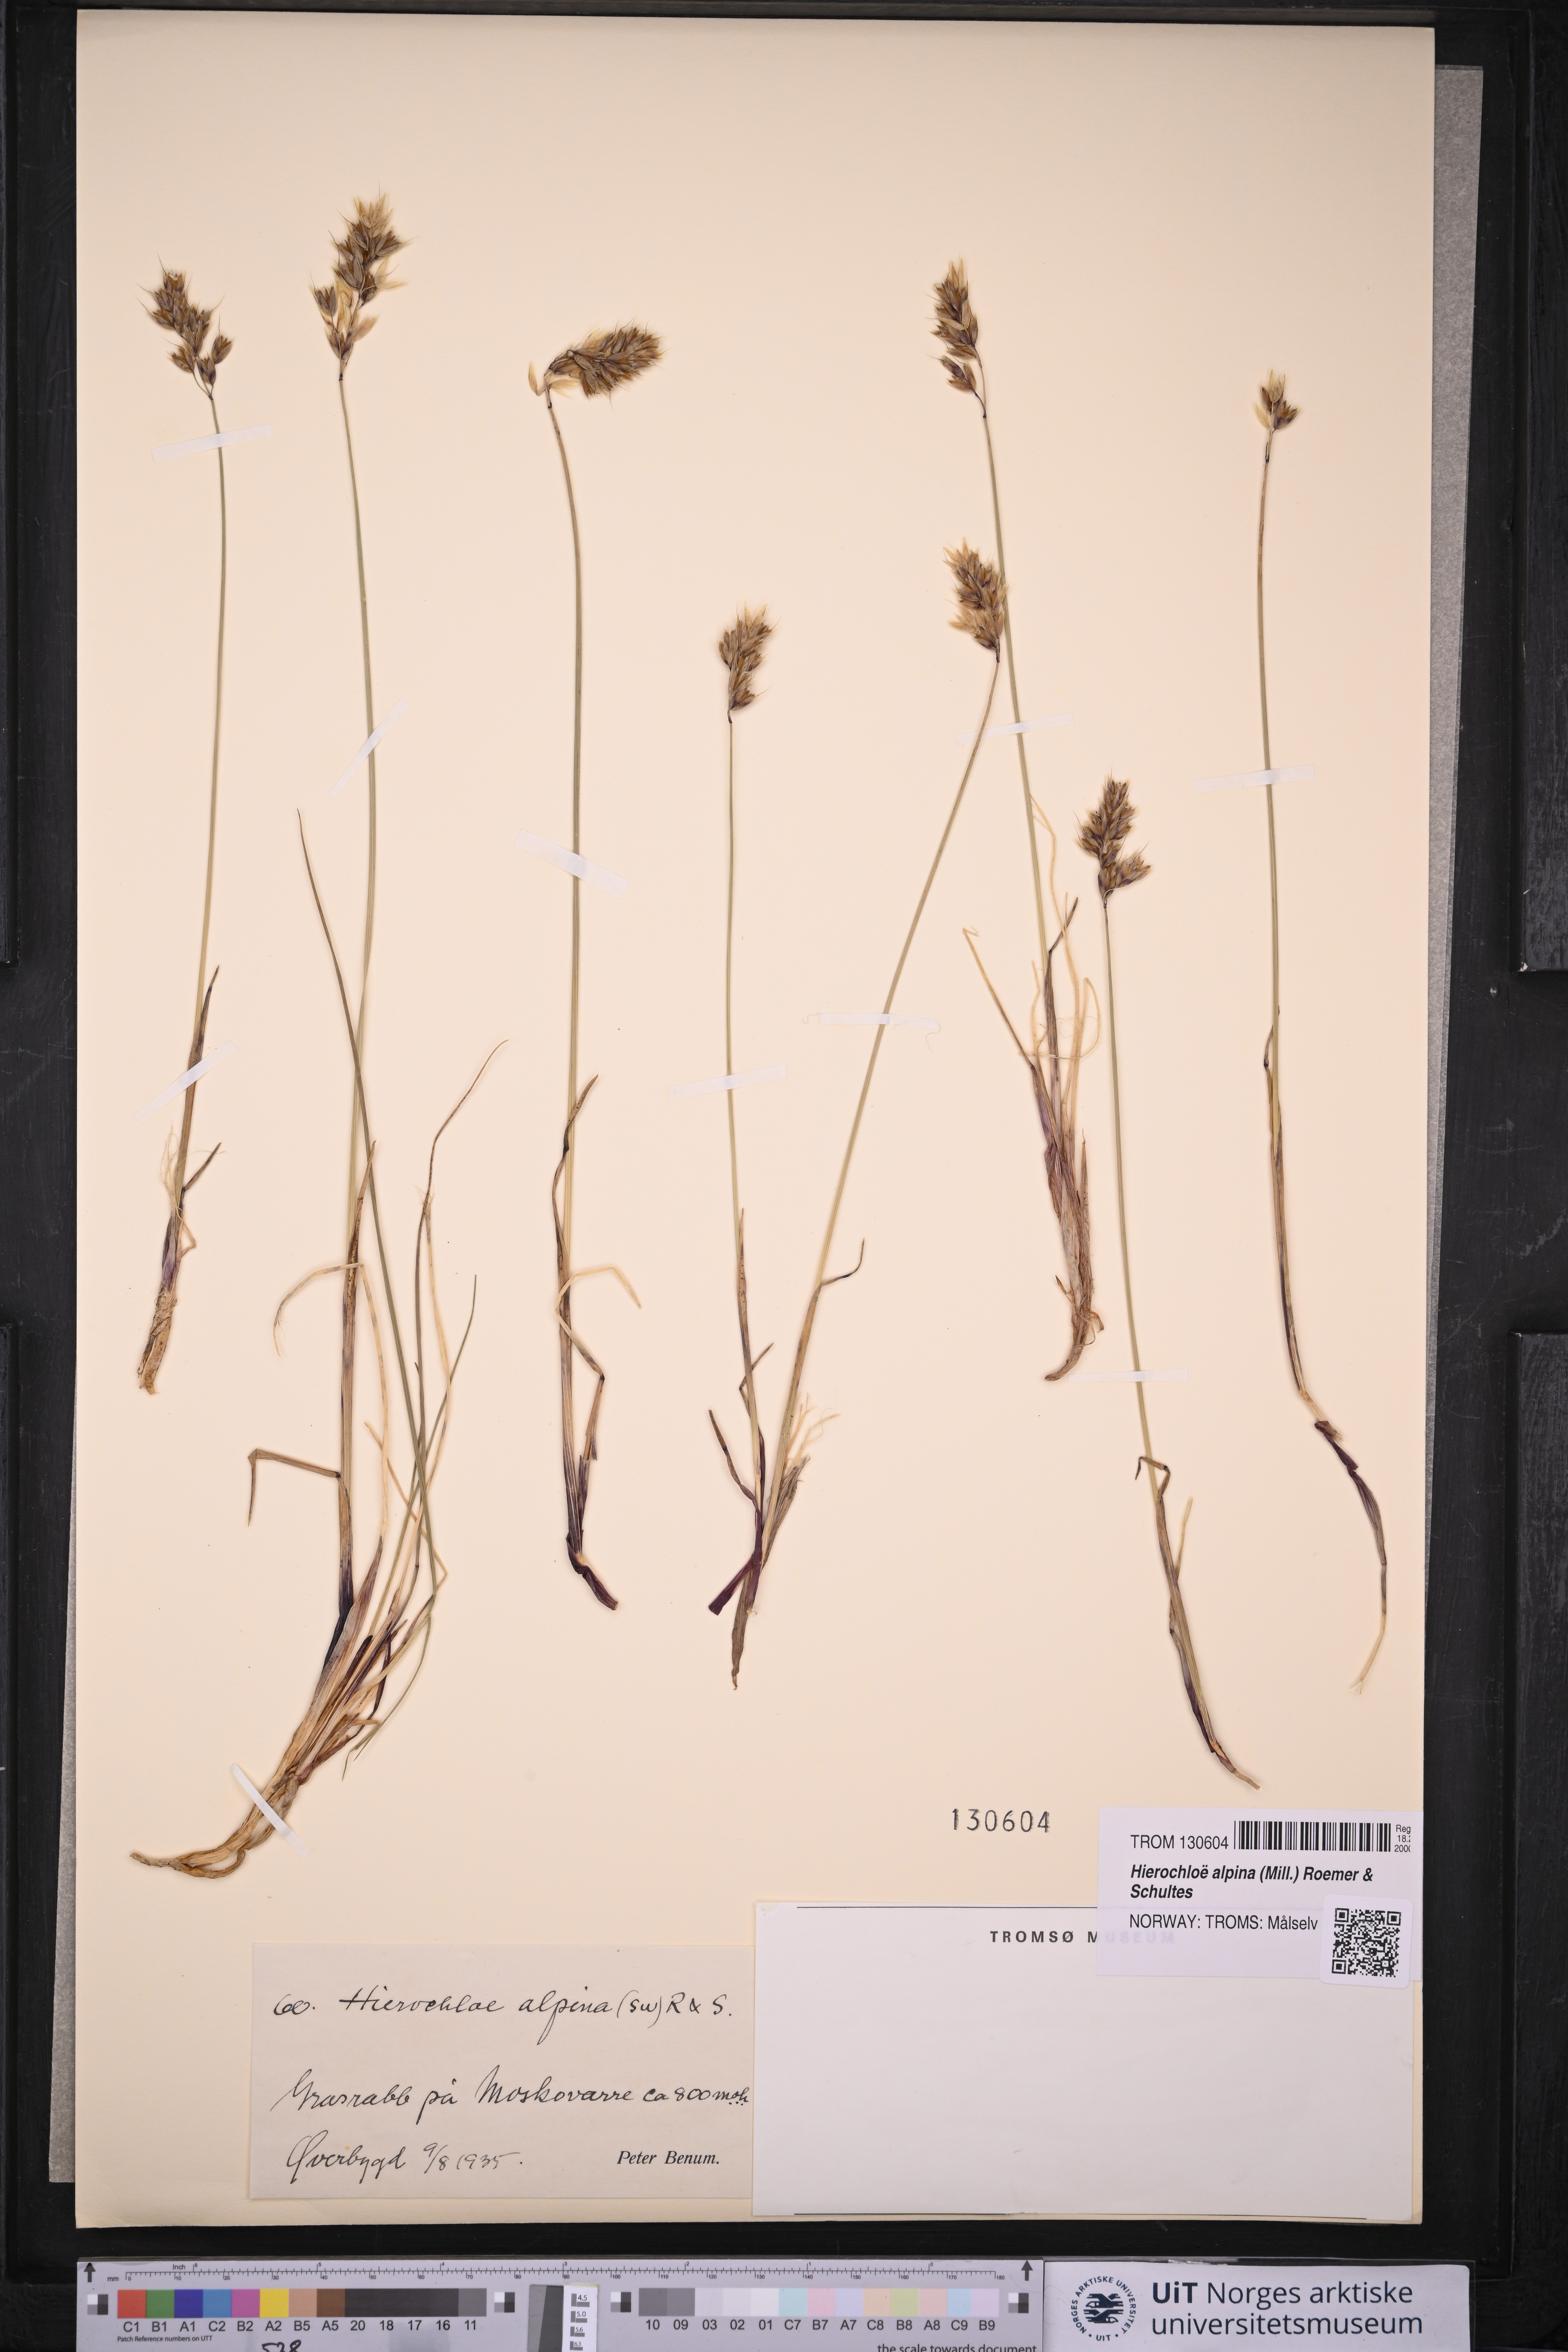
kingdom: Plantae
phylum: Tracheophyta
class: Liliopsida
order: Poales
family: Poaceae
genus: Anthoxanthum
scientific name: Anthoxanthum monticola
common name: Alpine sweetgrass
